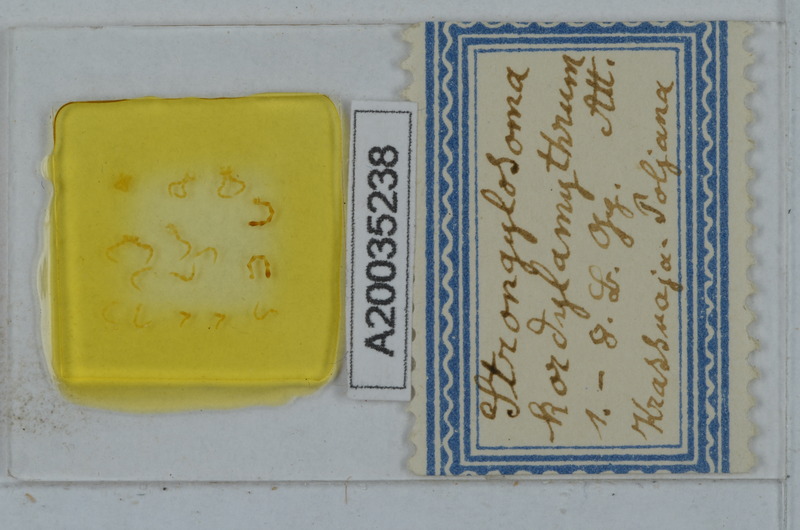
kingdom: Animalia
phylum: Arthropoda
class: Diplopoda
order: Polydesmida
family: Paradoxosomatidae
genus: Strongylosoma
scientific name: Strongylosoma kordylamythrum
